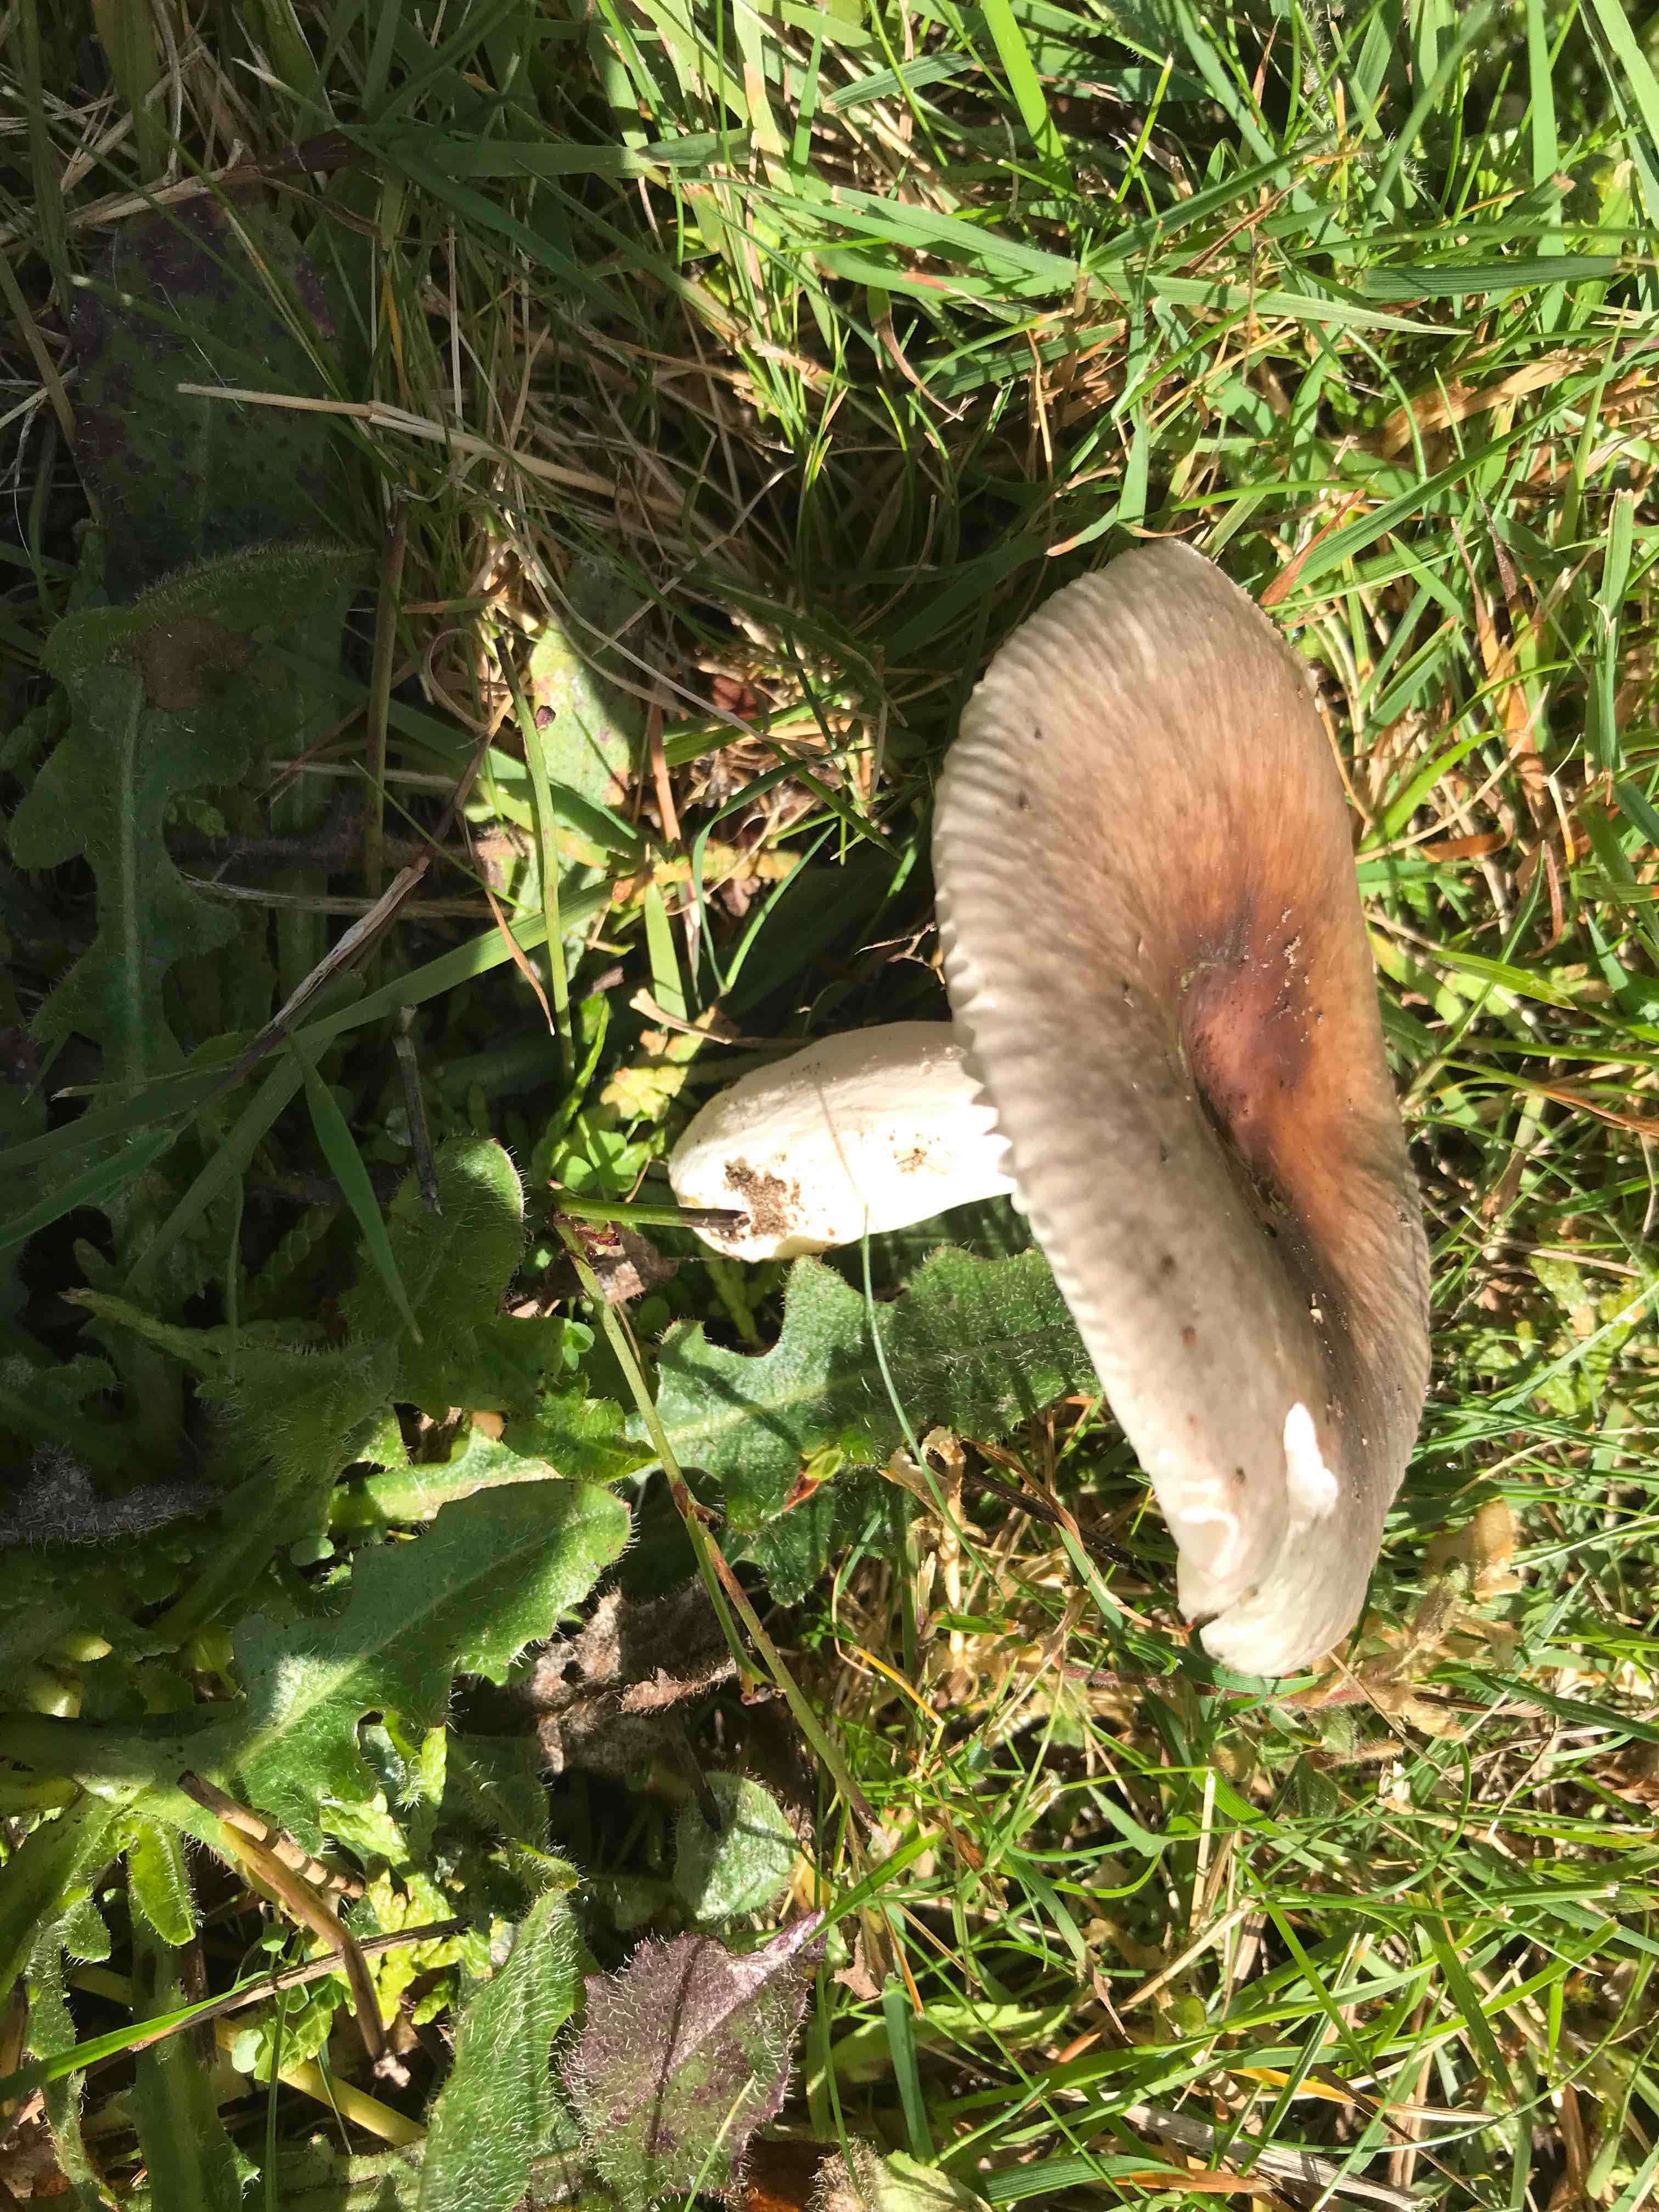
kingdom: Fungi
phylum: Basidiomycota
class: Agaricomycetes
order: Russulales
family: Russulaceae
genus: Russula
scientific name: Russula recondita
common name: mild kam-skørhat
